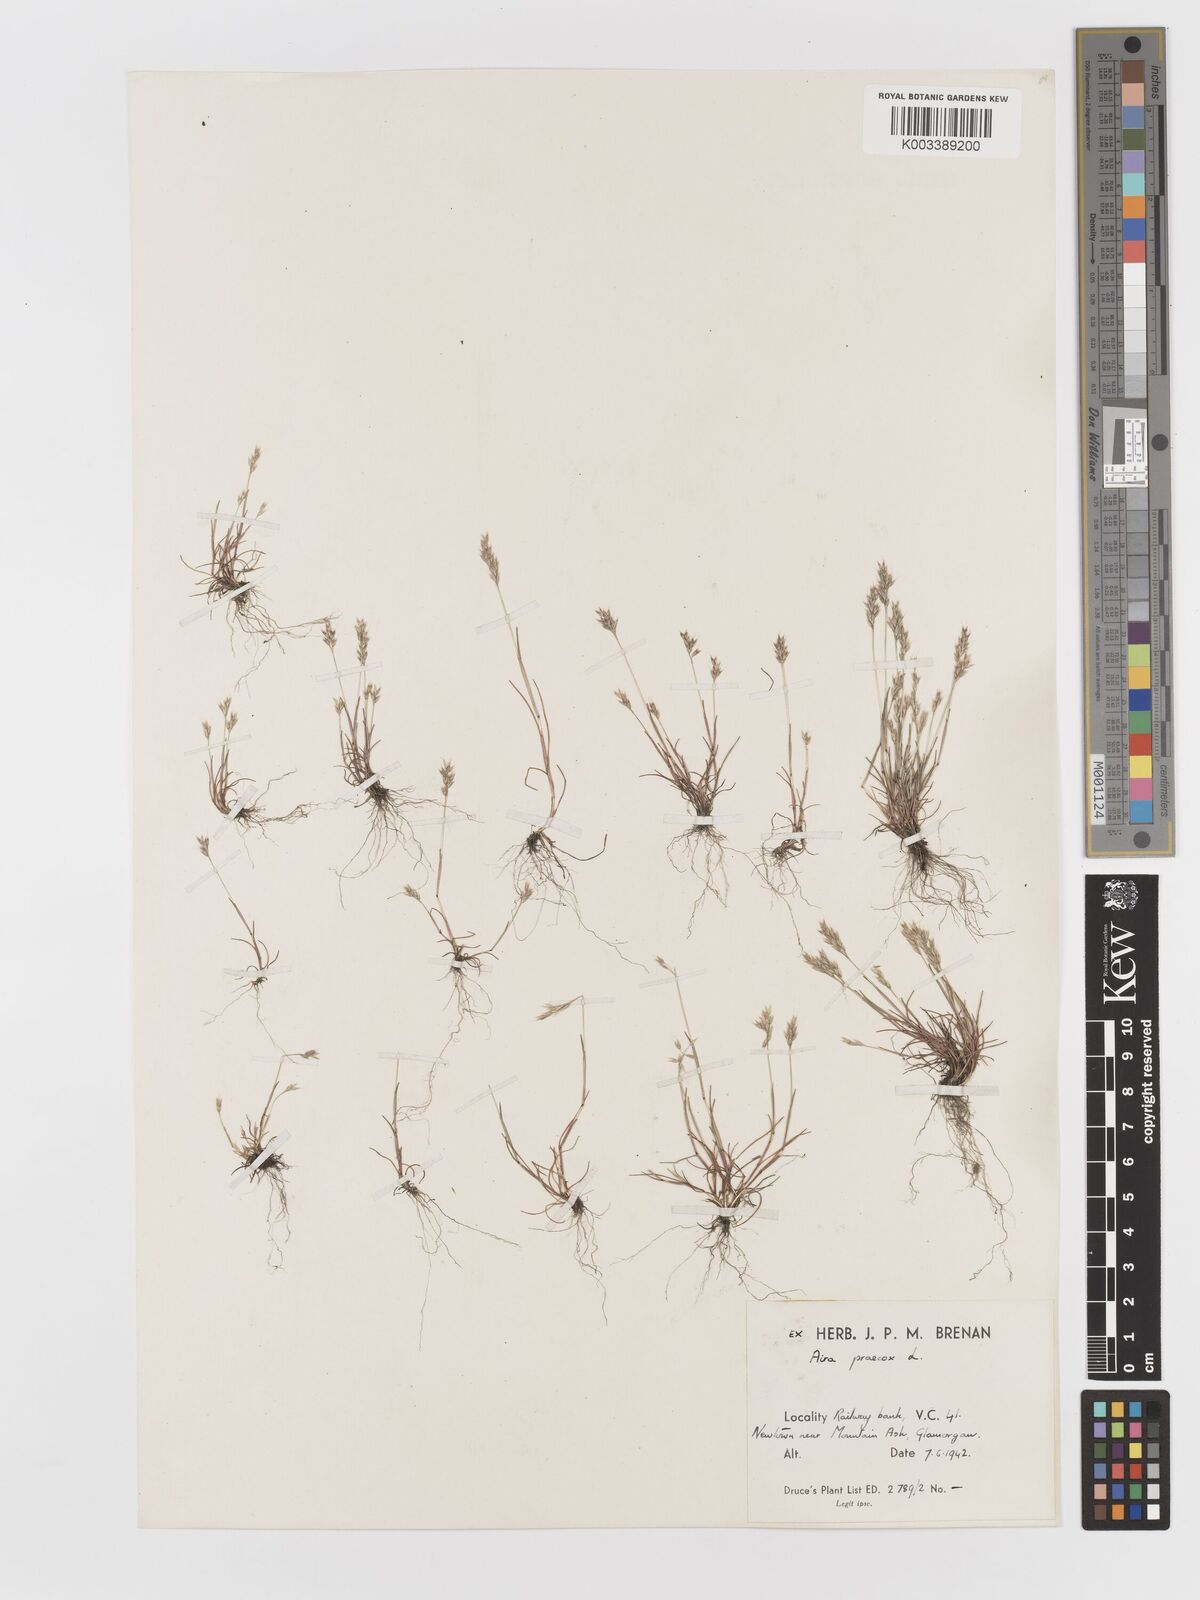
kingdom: Plantae
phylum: Tracheophyta
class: Liliopsida
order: Poales
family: Poaceae
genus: Aira
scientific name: Aira praecox
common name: Early hair-grass
